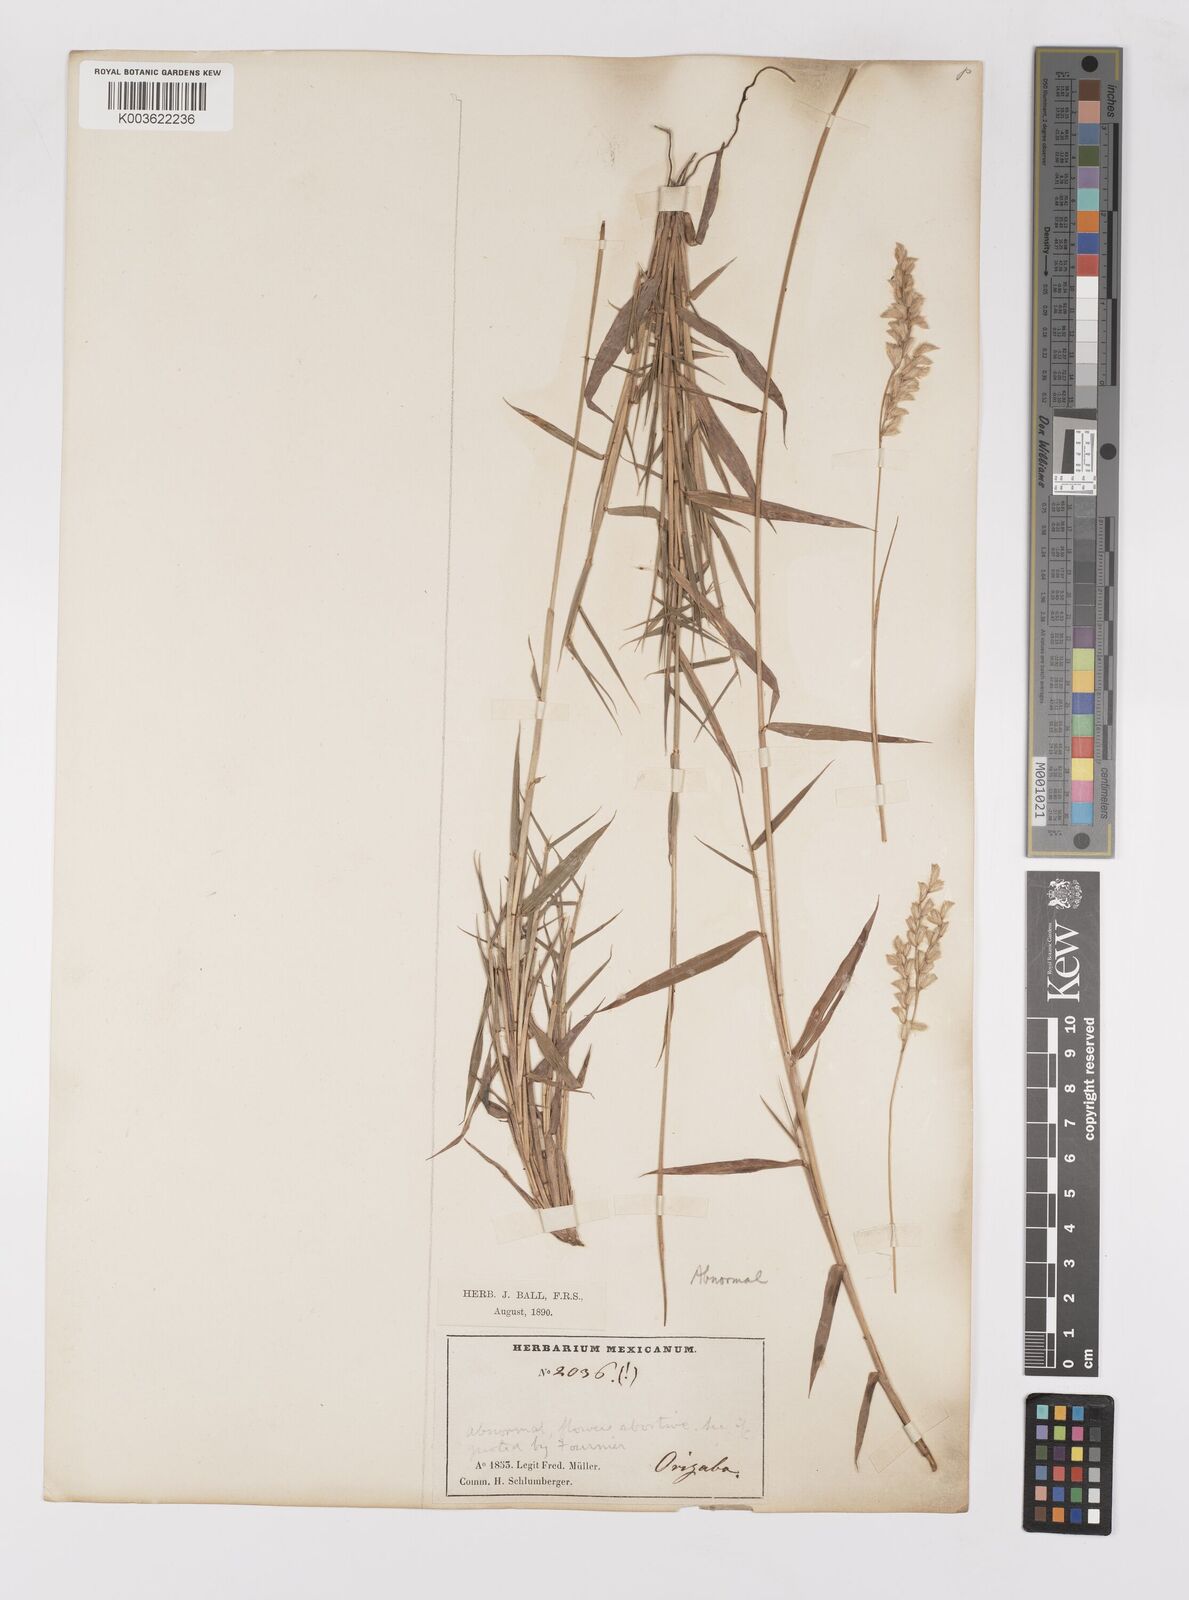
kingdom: Plantae
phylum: Tracheophyta
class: Liliopsida
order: Poales
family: Poaceae
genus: Paspalum
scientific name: Paspalum
